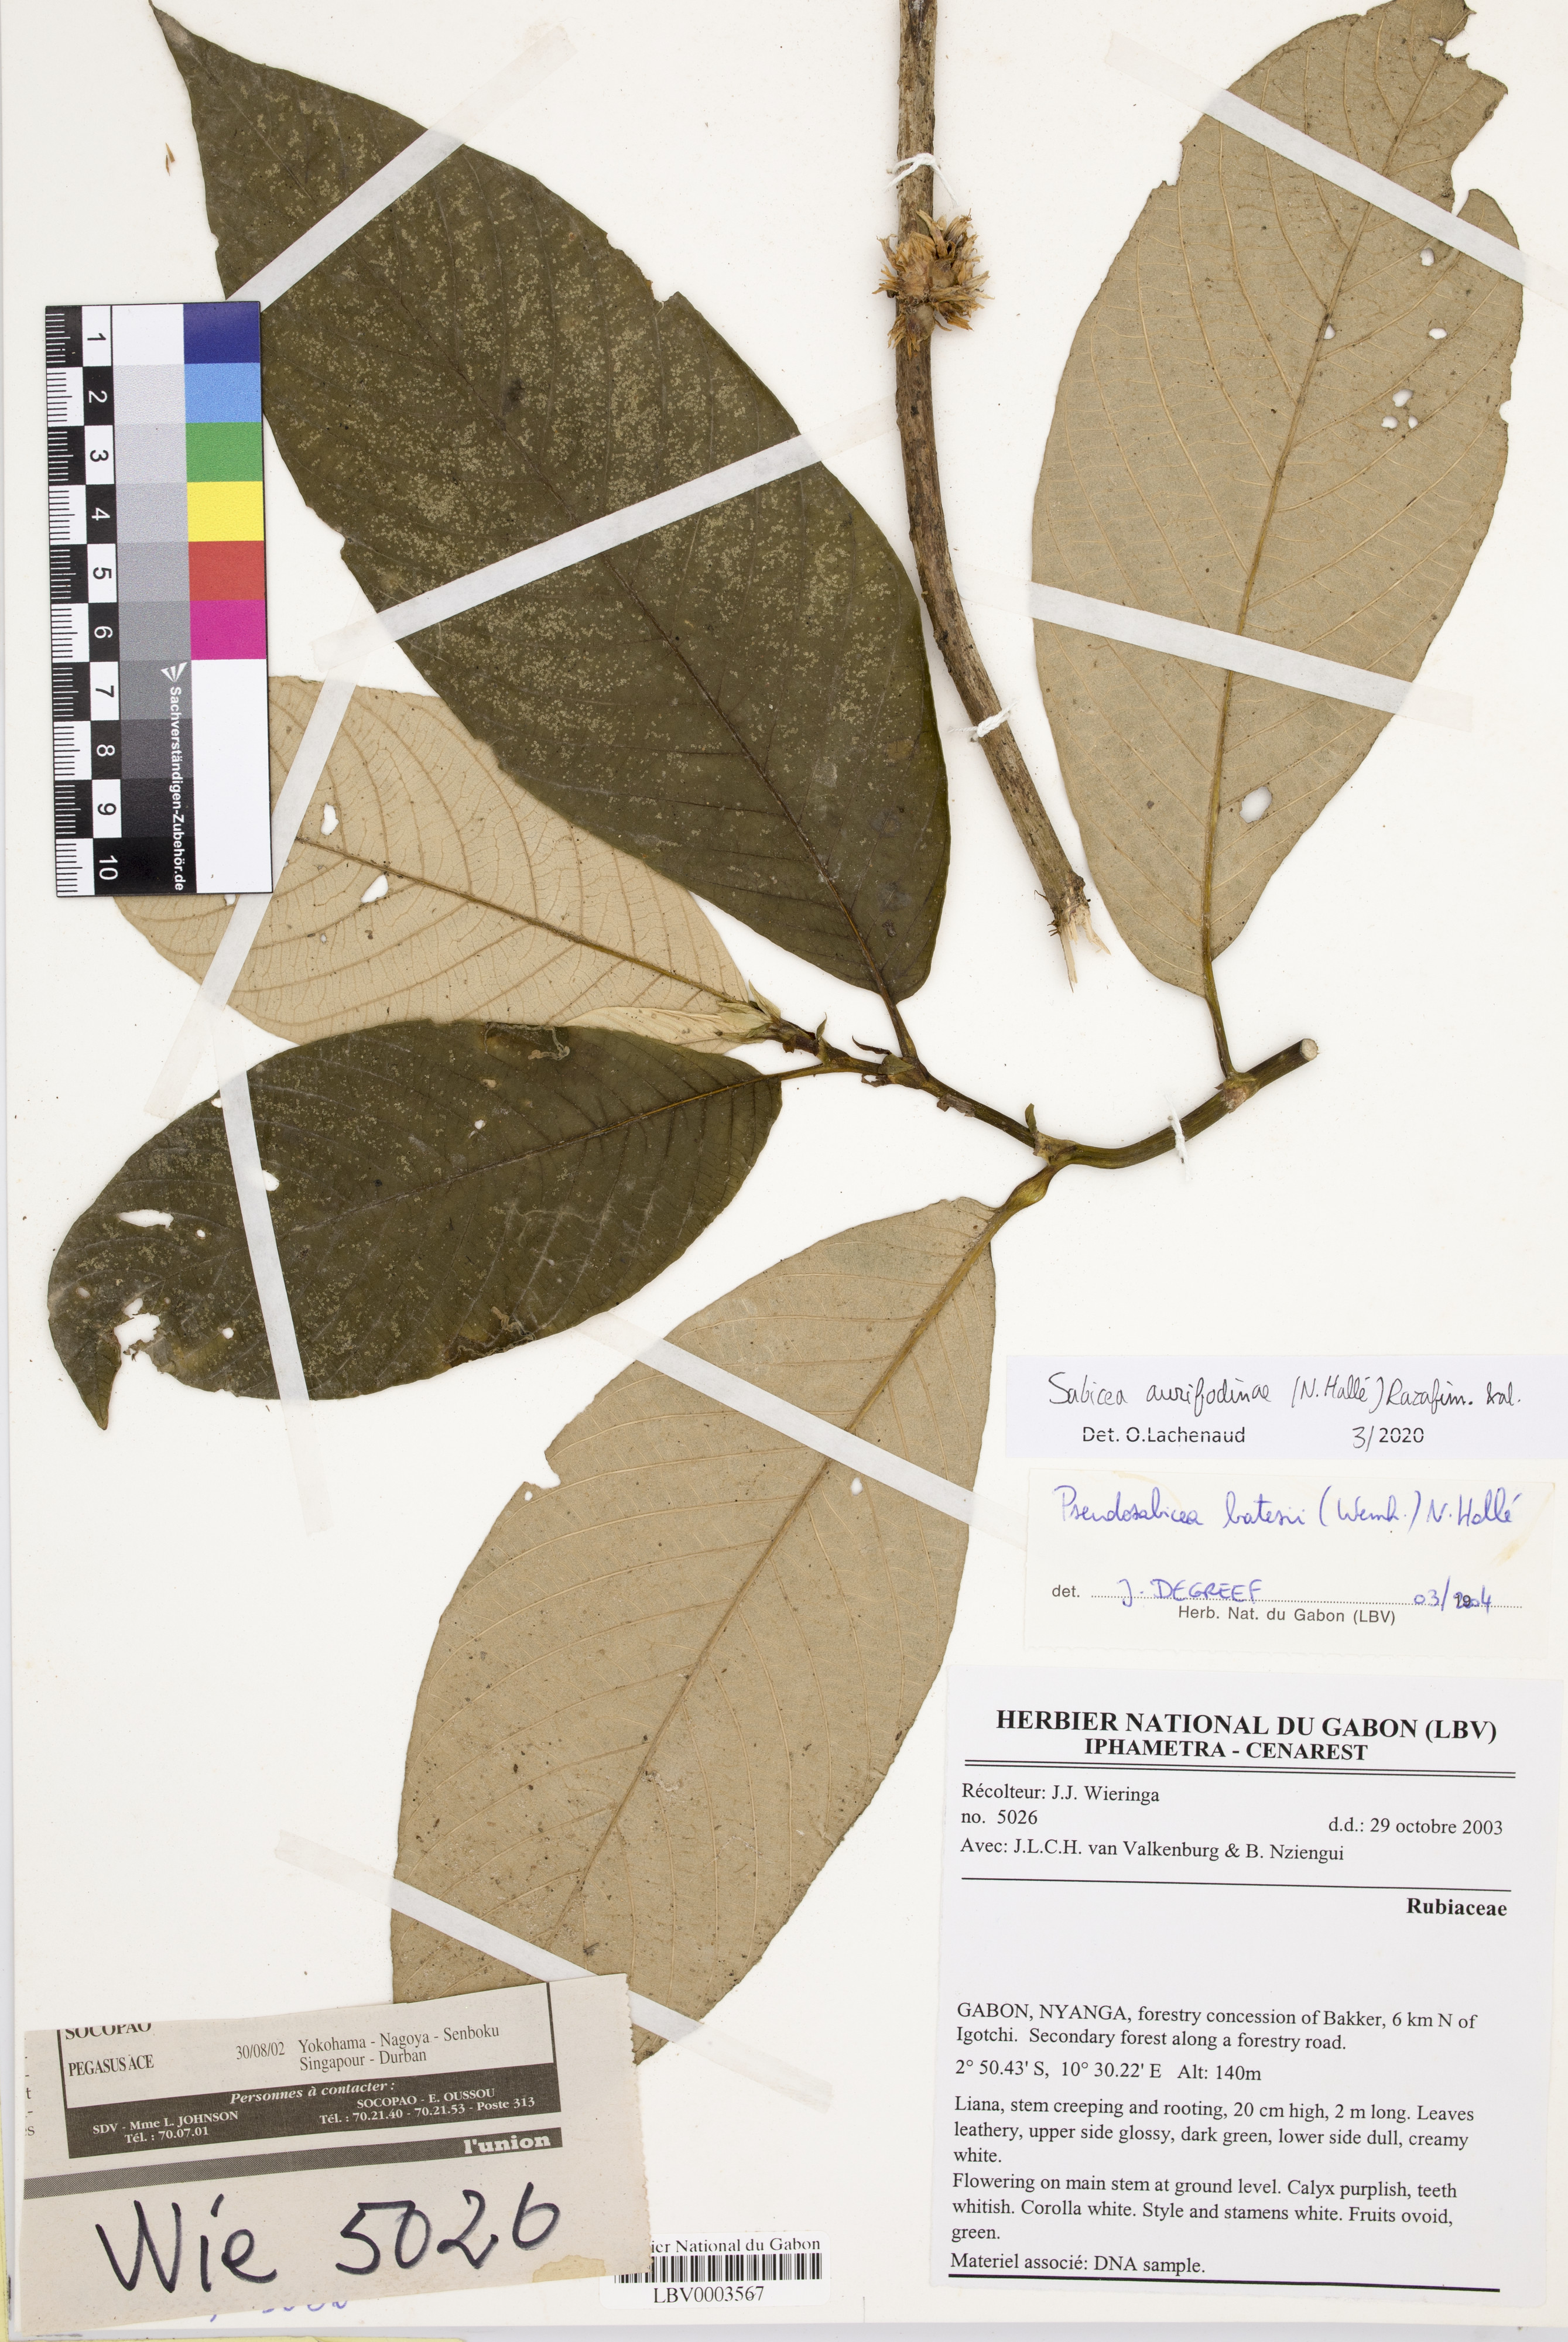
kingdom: Plantae
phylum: Tracheophyta
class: Magnoliopsida
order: Gentianales
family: Rubiaceae
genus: Sabicea
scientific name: Sabicea aurifodinae
